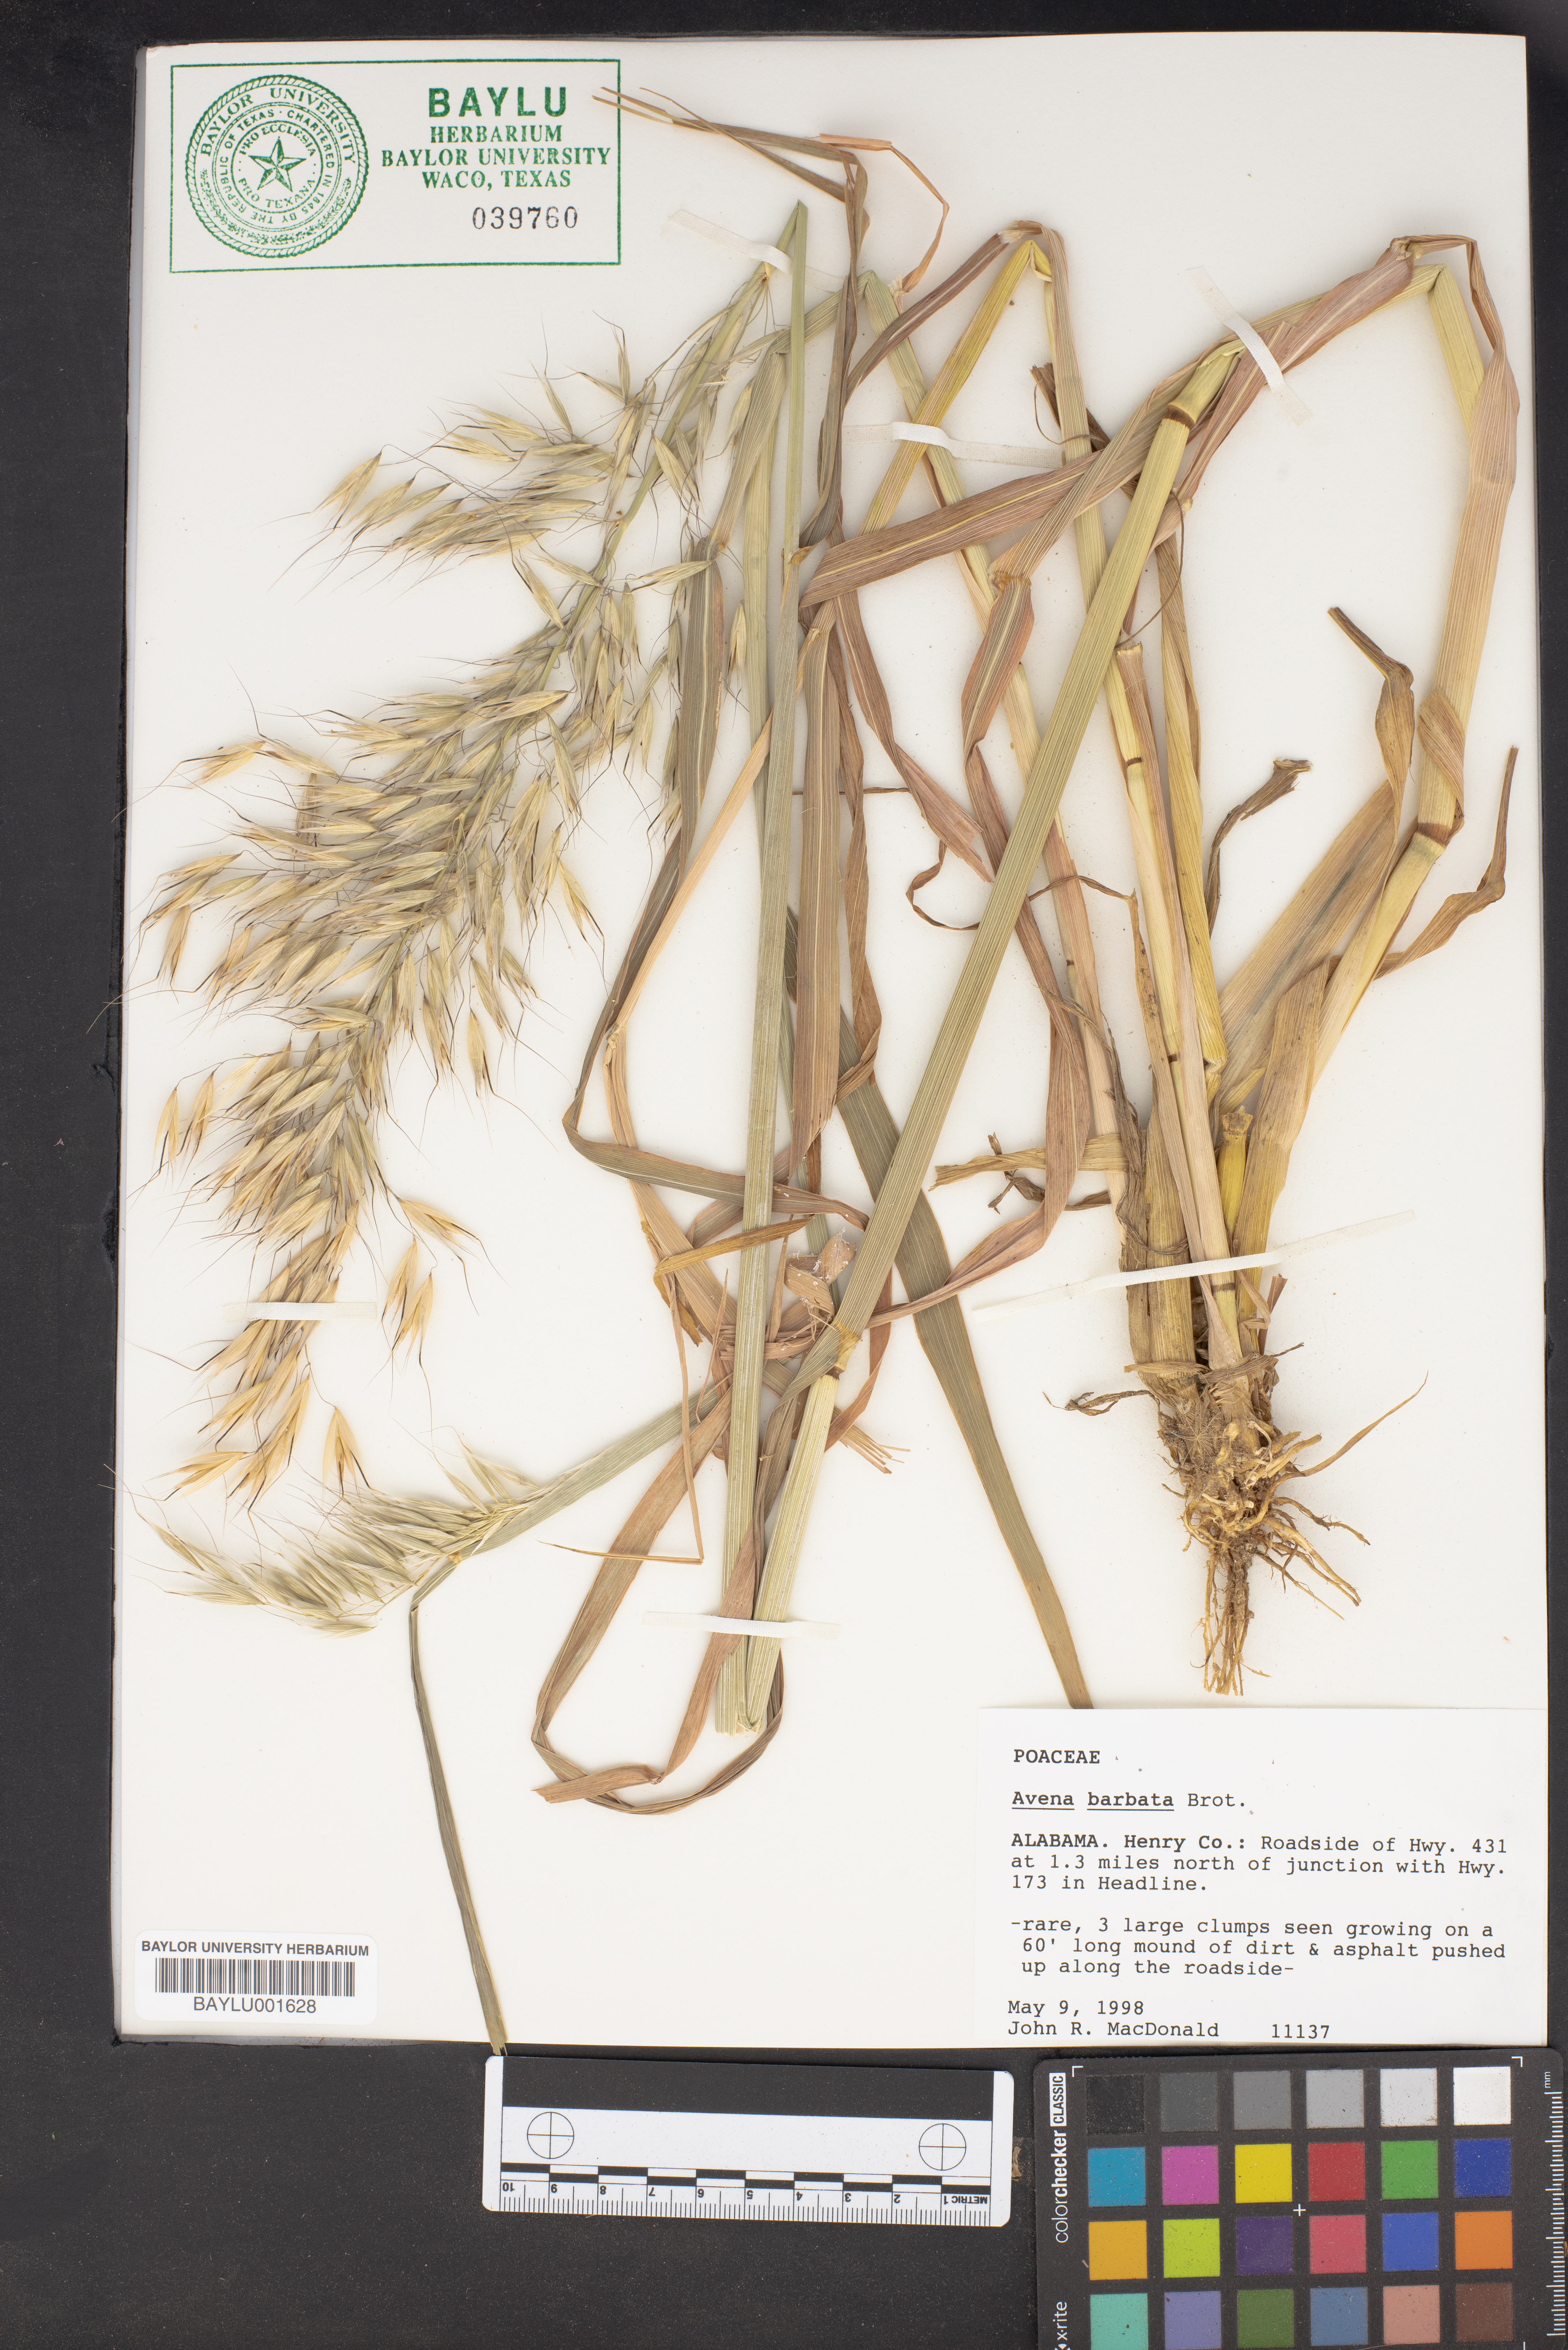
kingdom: Plantae
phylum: Tracheophyta
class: Liliopsida
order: Poales
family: Poaceae
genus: Avena
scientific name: Avena barbata
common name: Slender oat
